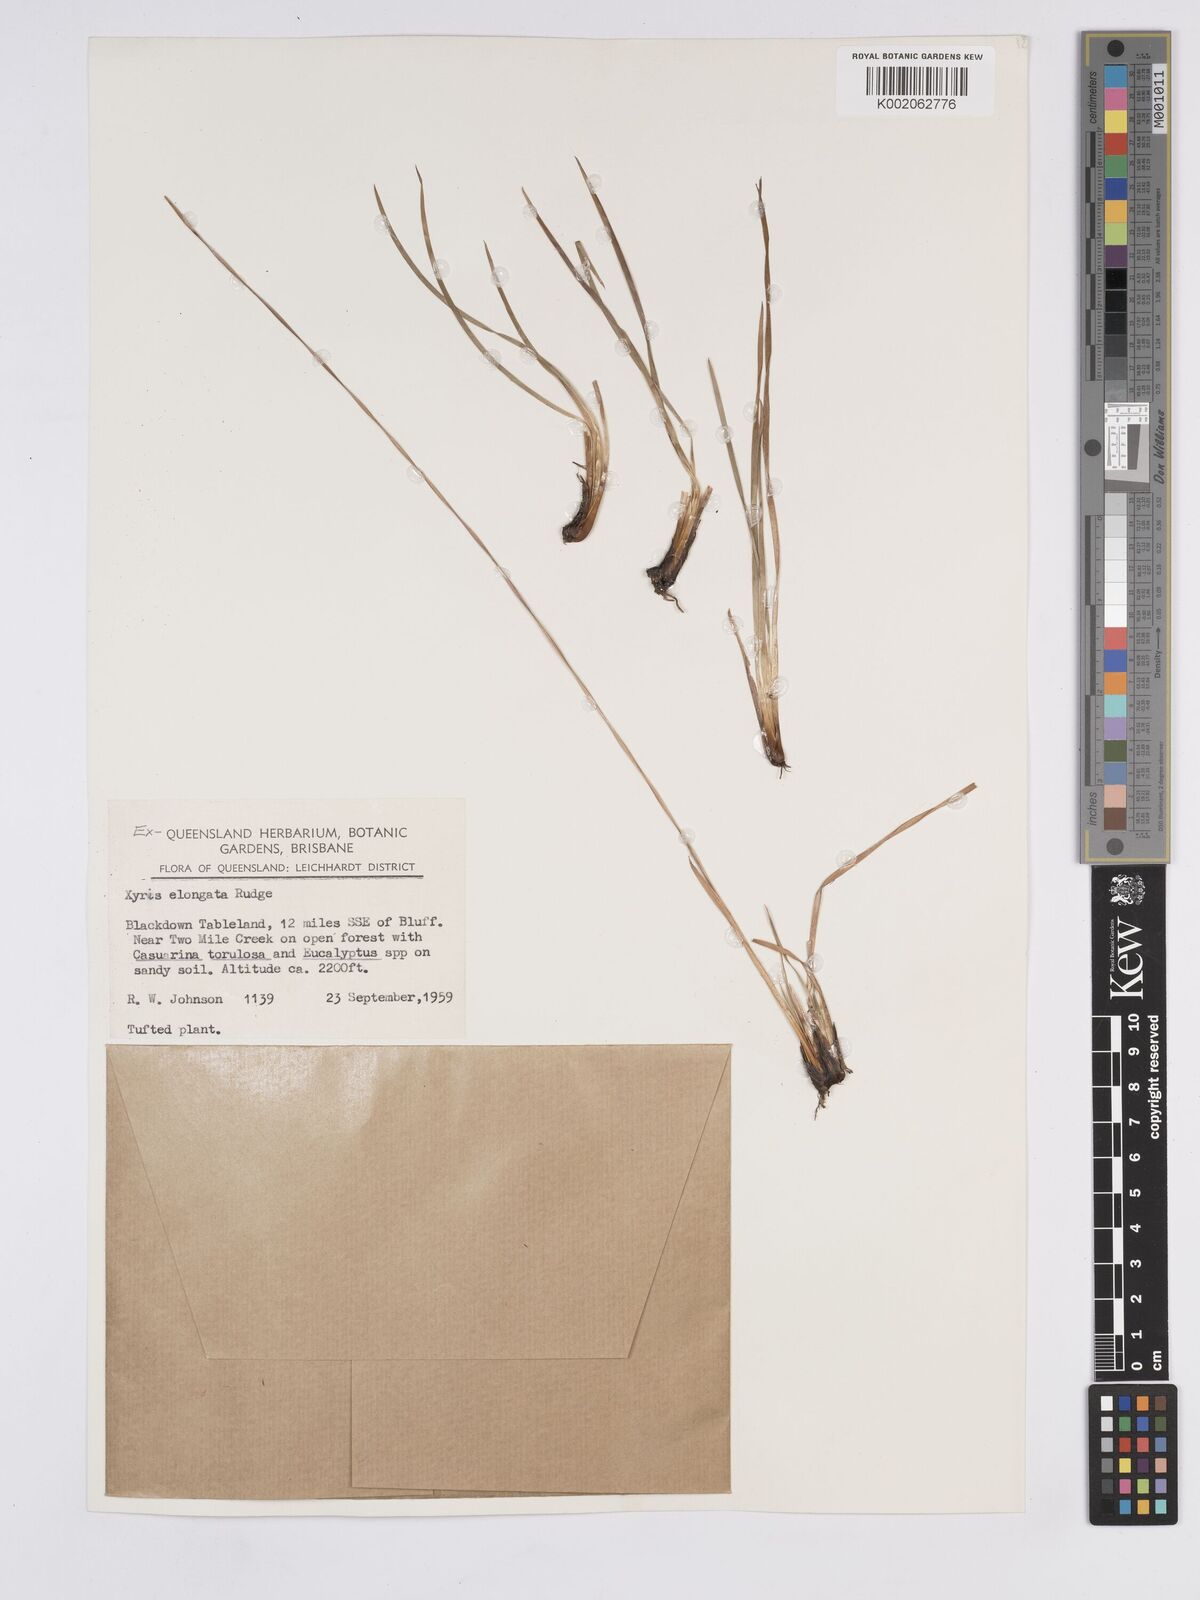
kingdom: Plantae
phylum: Tracheophyta
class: Liliopsida
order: Poales
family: Xyridaceae
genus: Xyris
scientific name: Xyris complanata
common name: Hawai'i yelloweyed grass
